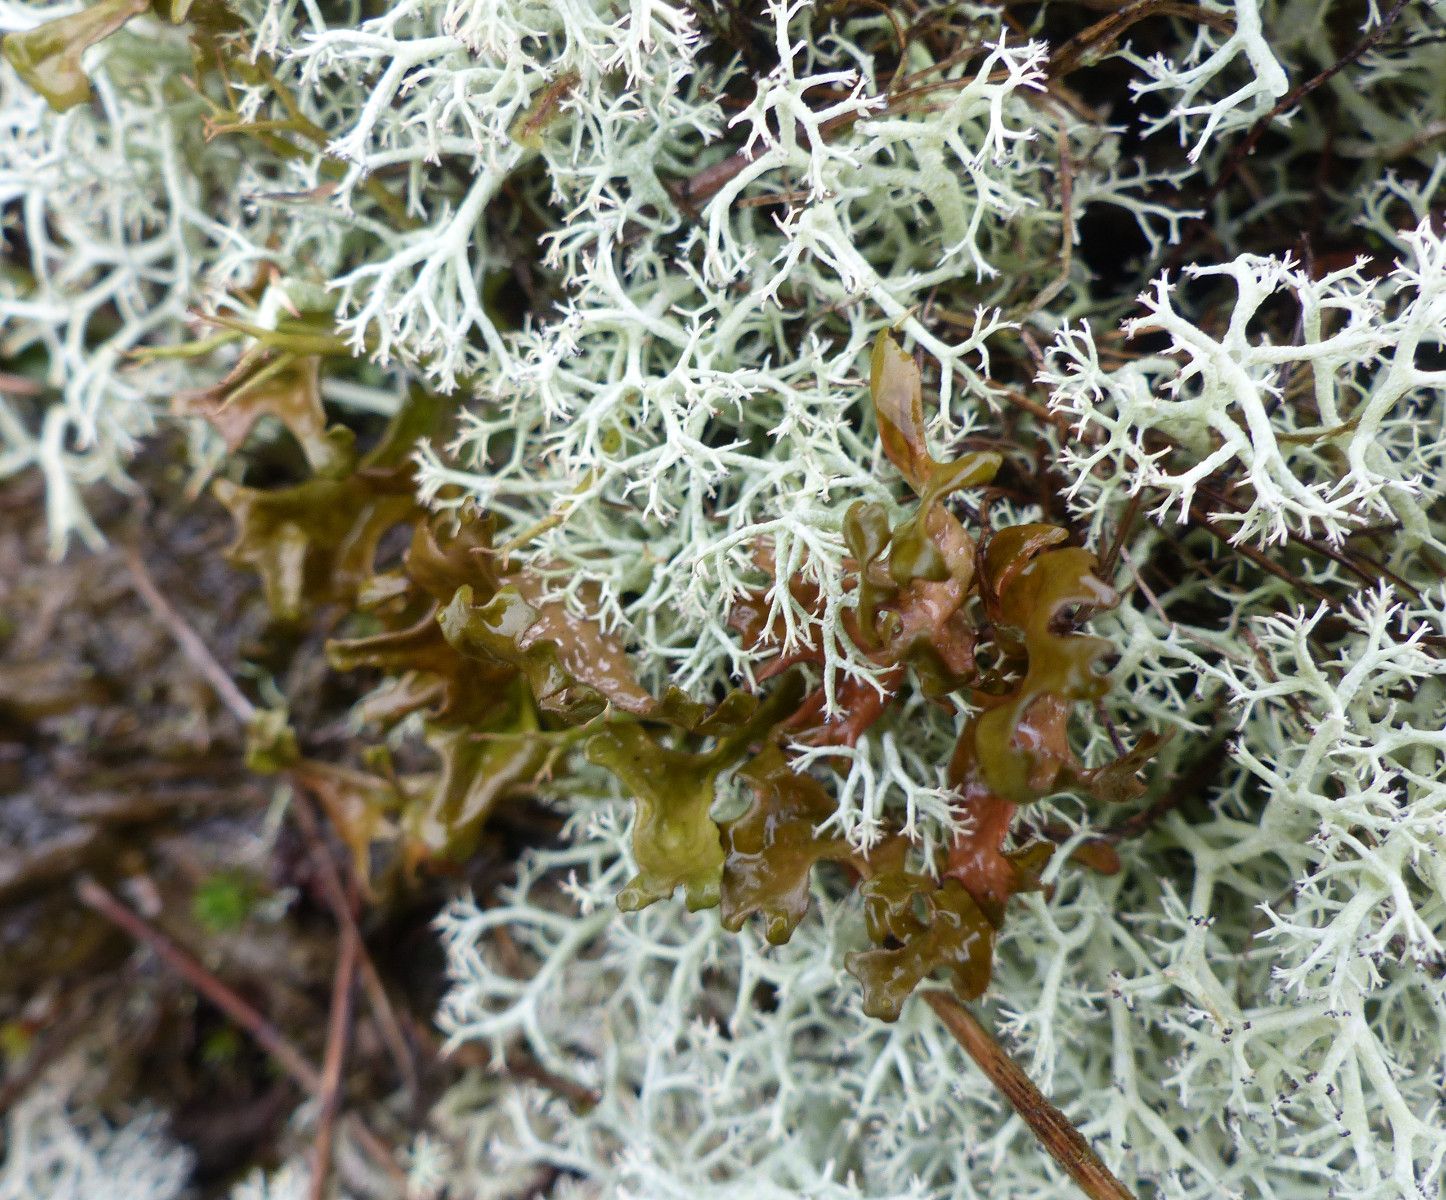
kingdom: Fungi
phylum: Ascomycota
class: Lecanoromycetes
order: Lecanorales
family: Parmeliaceae
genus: Cetraria
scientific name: Cetraria islandica
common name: islandsk kruslav
